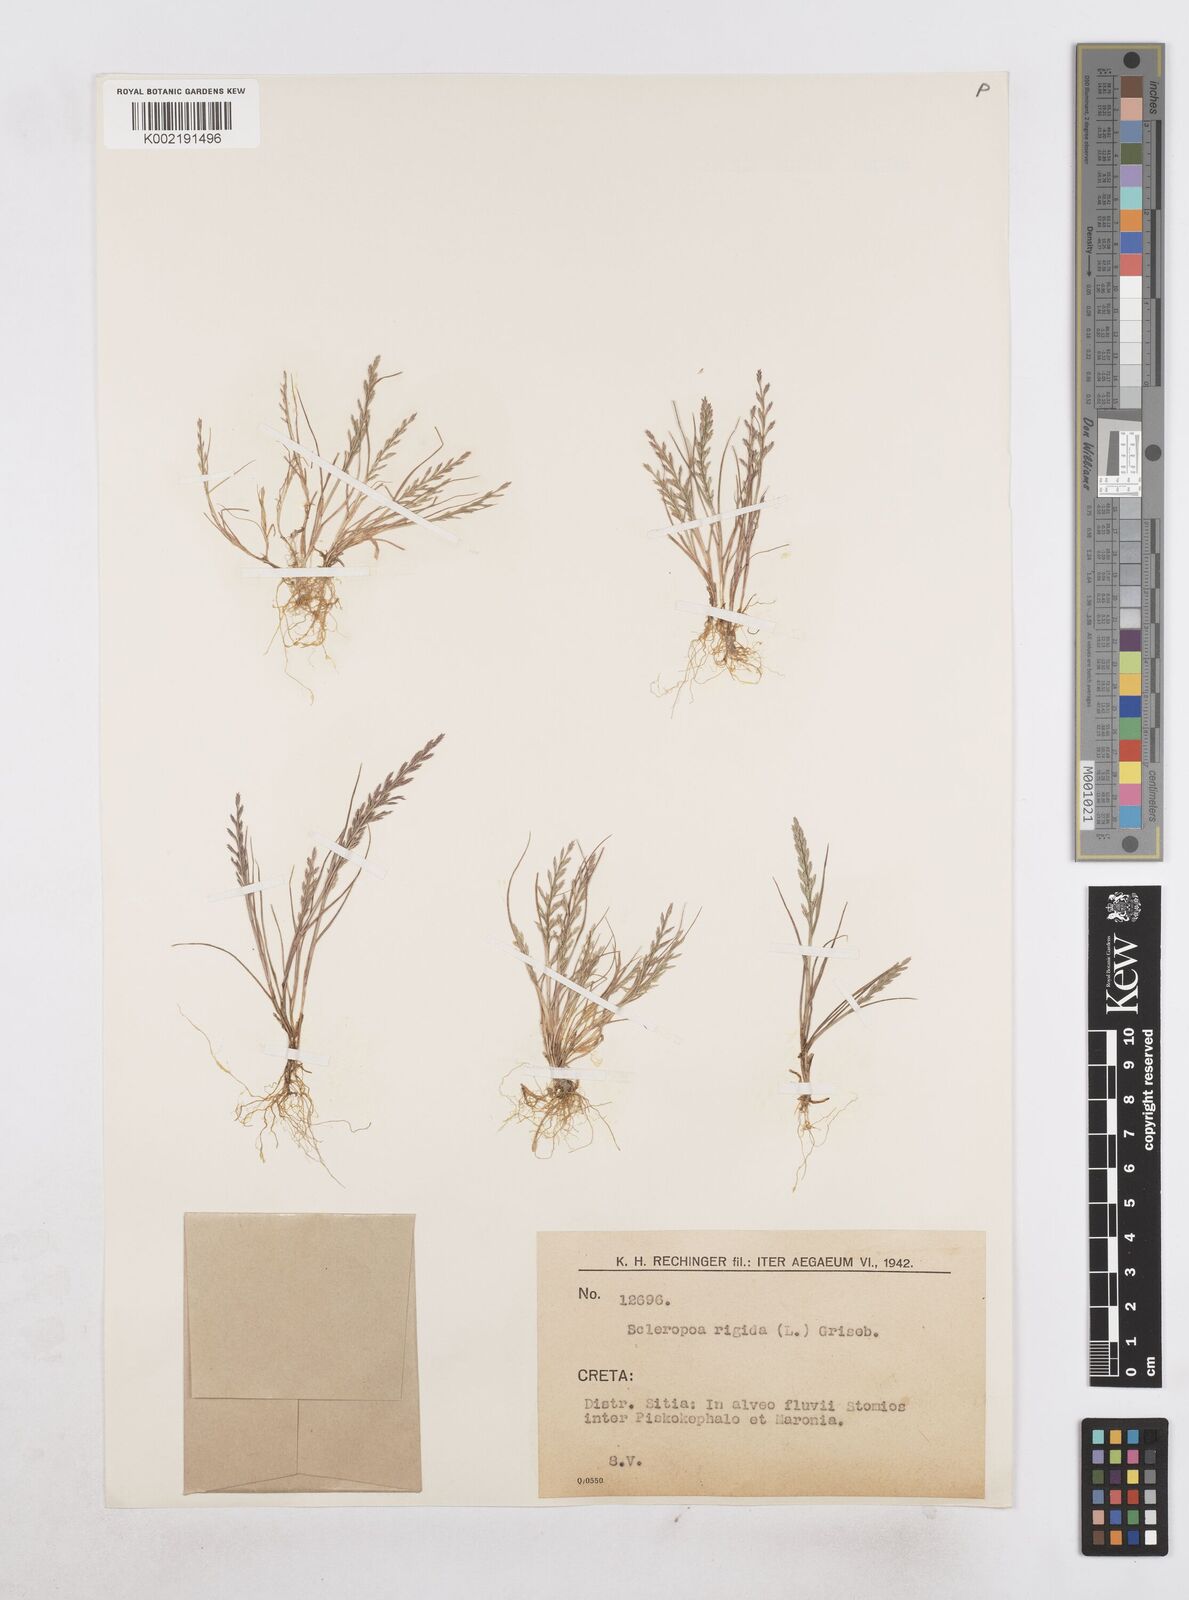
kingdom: Plantae
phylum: Tracheophyta
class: Liliopsida
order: Poales
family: Poaceae
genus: Catapodium
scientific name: Catapodium rigidum
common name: Fern-grass
